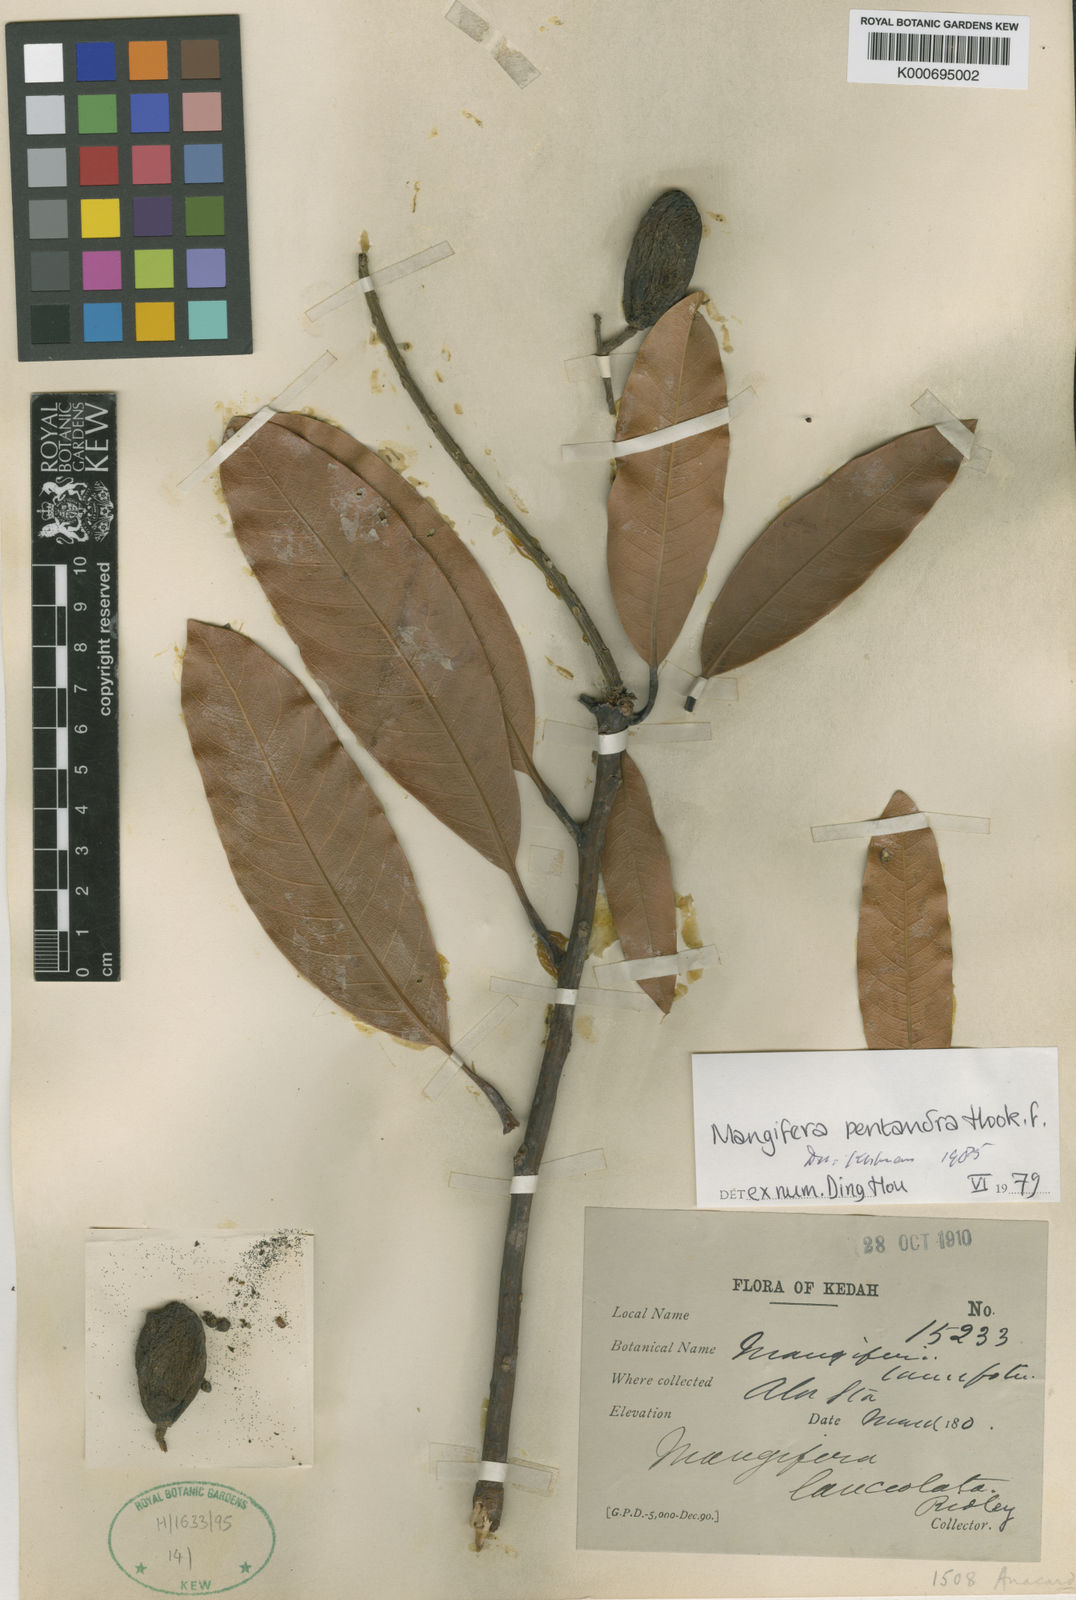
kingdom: Plantae
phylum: Tracheophyta
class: Magnoliopsida
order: Sapindales
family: Anacardiaceae
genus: Mangifera
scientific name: Mangifera pentandra
